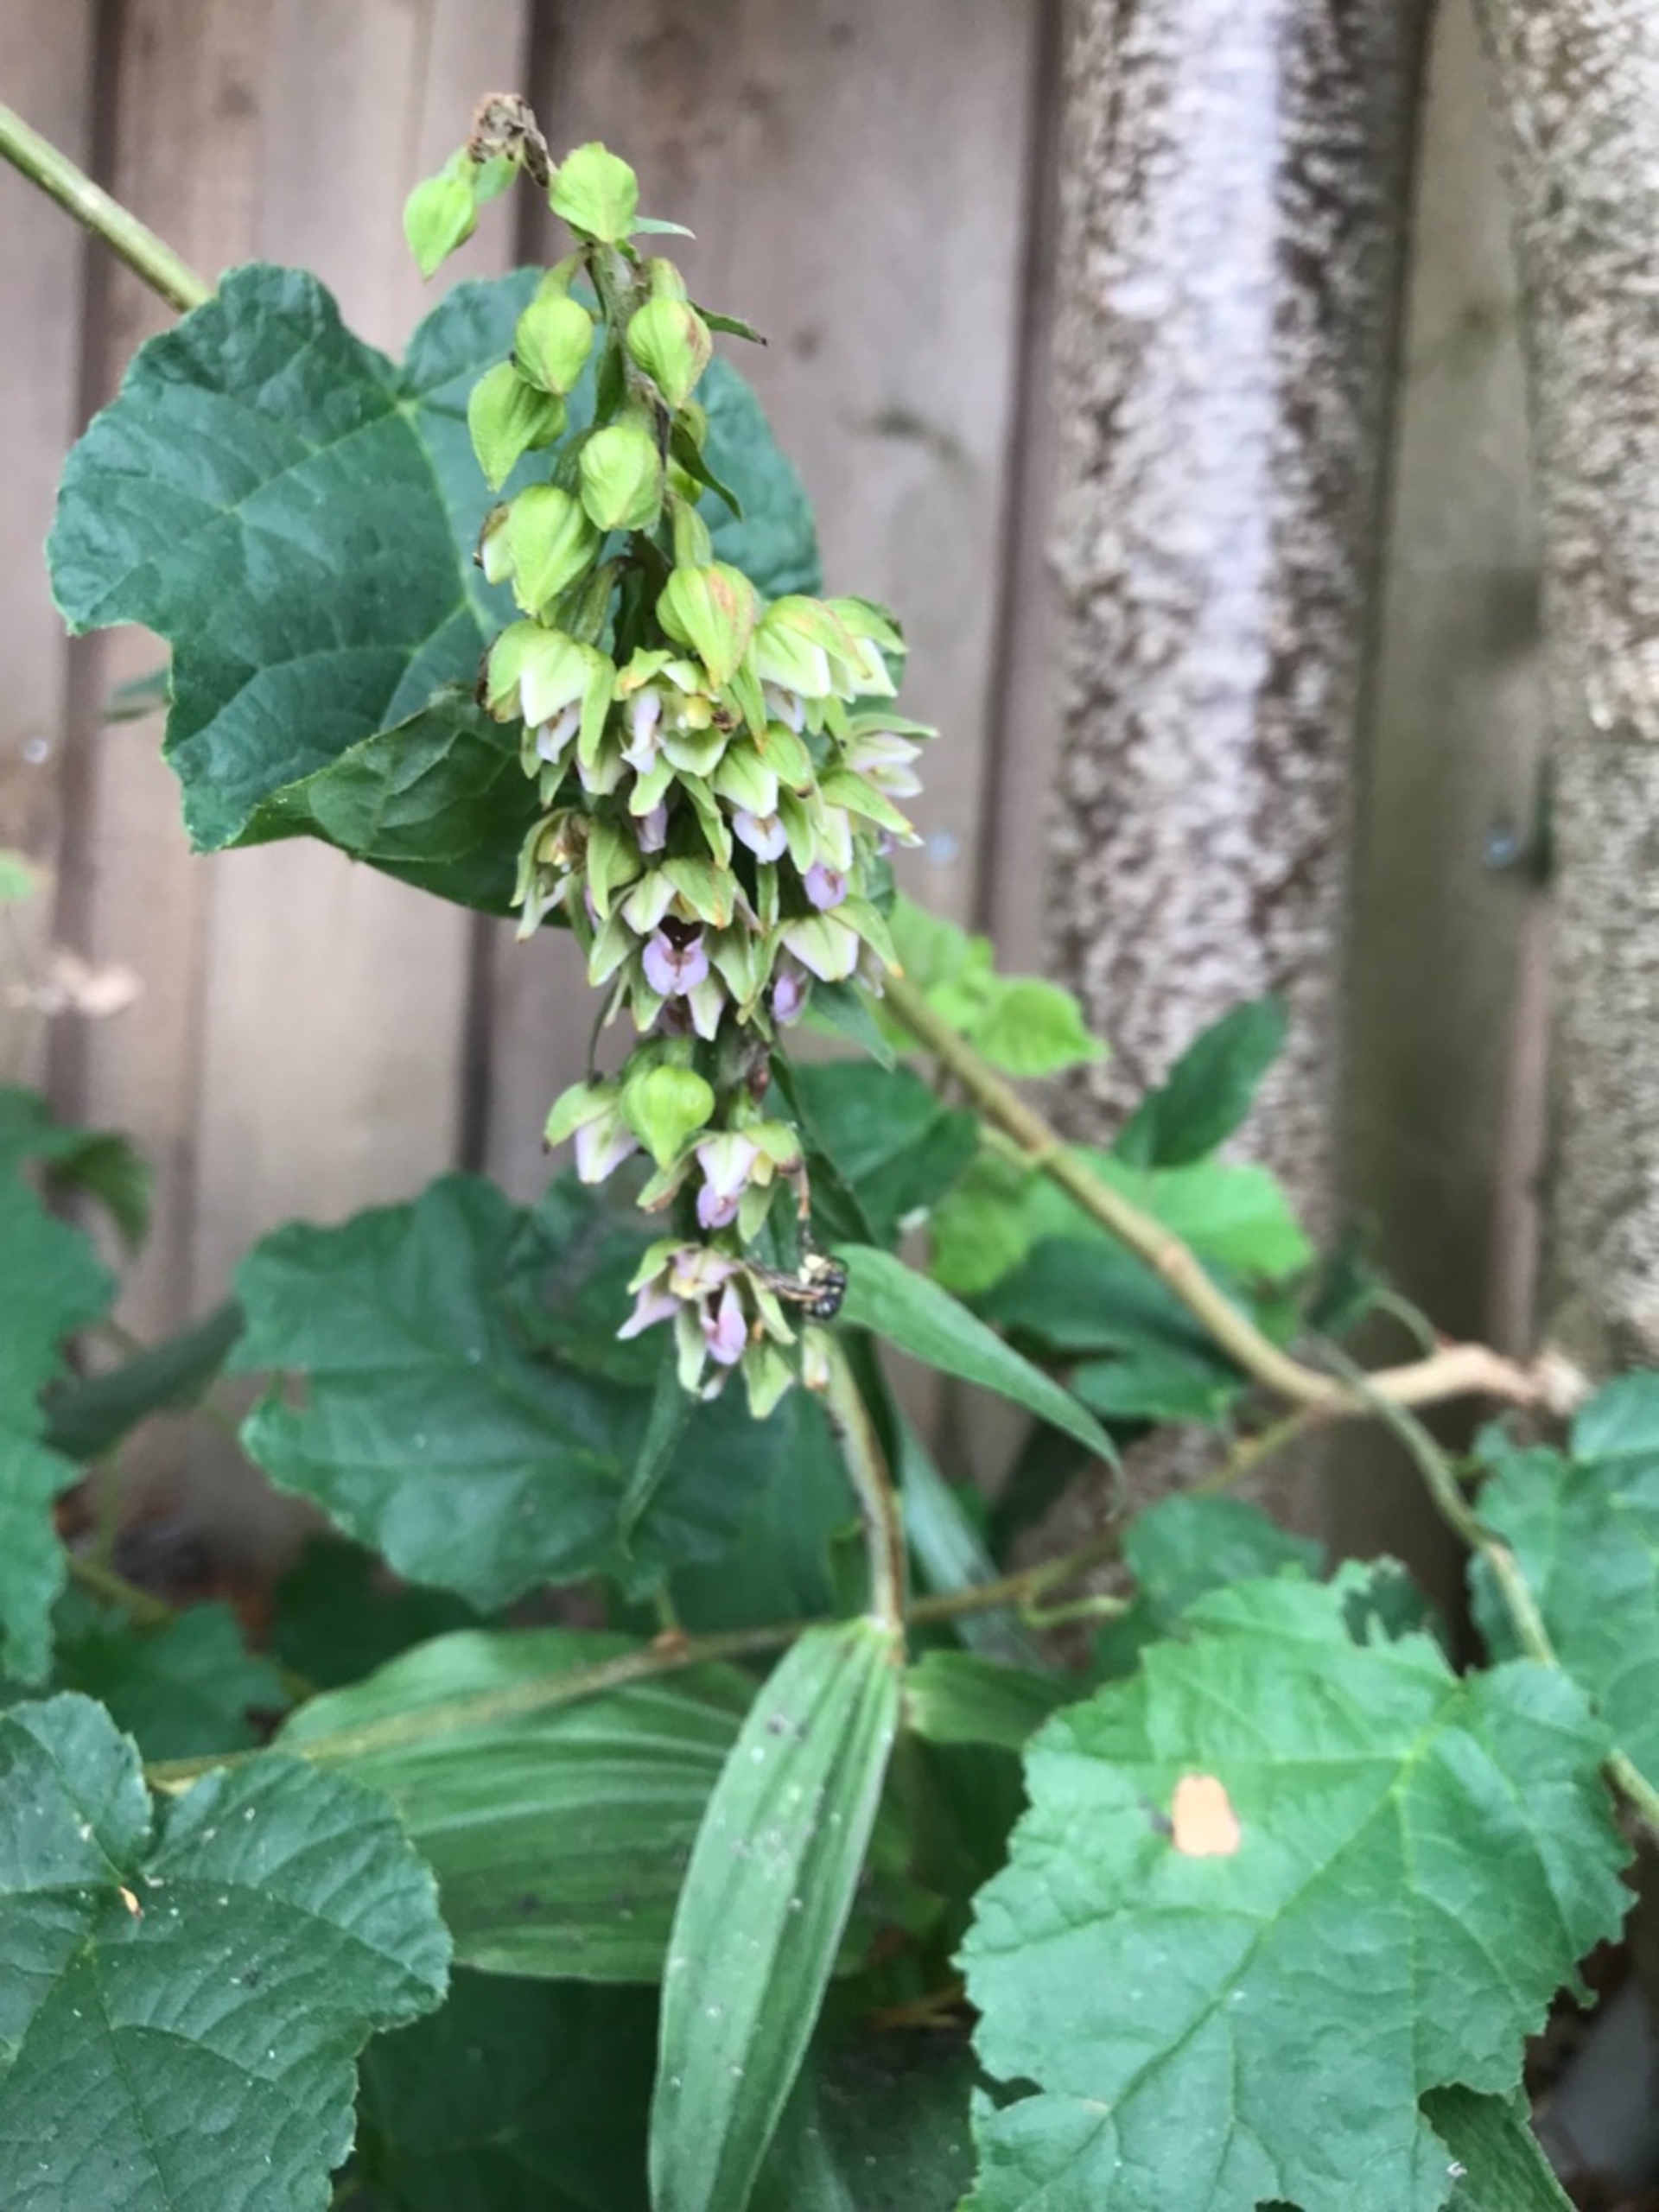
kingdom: Plantae
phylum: Tracheophyta
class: Liliopsida
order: Asparagales
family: Orchidaceae
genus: Epipactis
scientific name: Epipactis helleborine
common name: Skov-hullæbe
